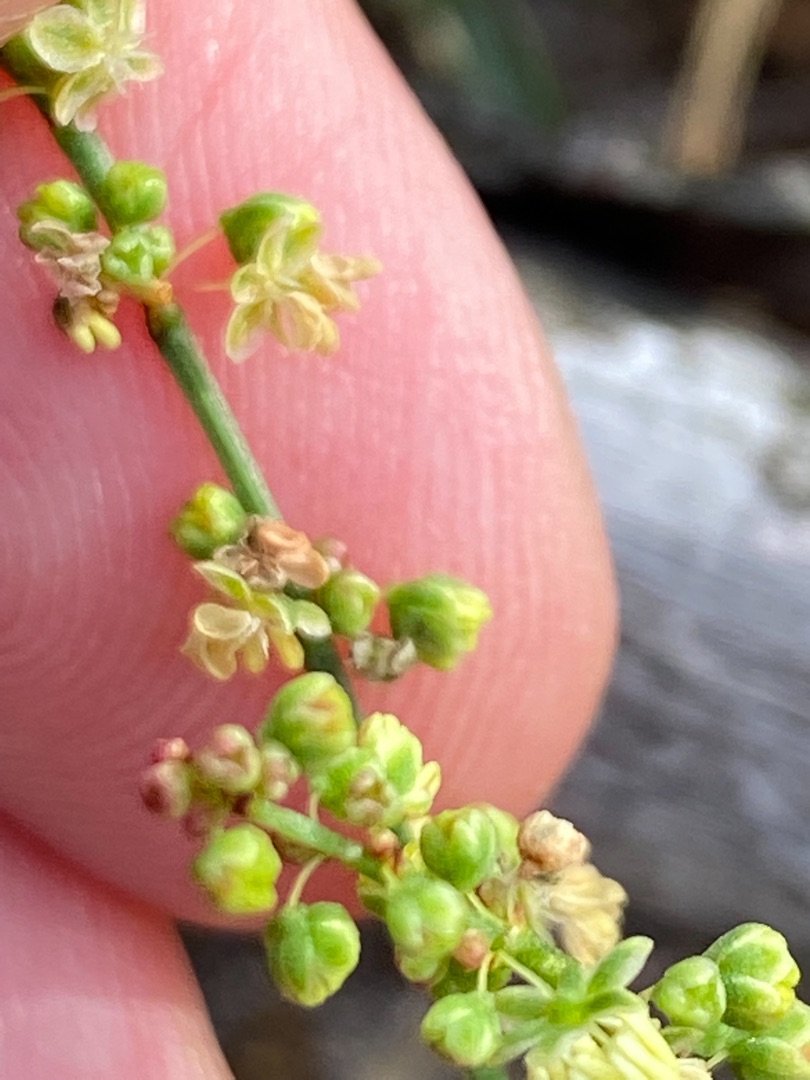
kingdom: Plantae
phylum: Tracheophyta
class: Magnoliopsida
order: Caryophyllales
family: Polygonaceae
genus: Rumex
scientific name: Rumex acetosella
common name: Rødknæ
